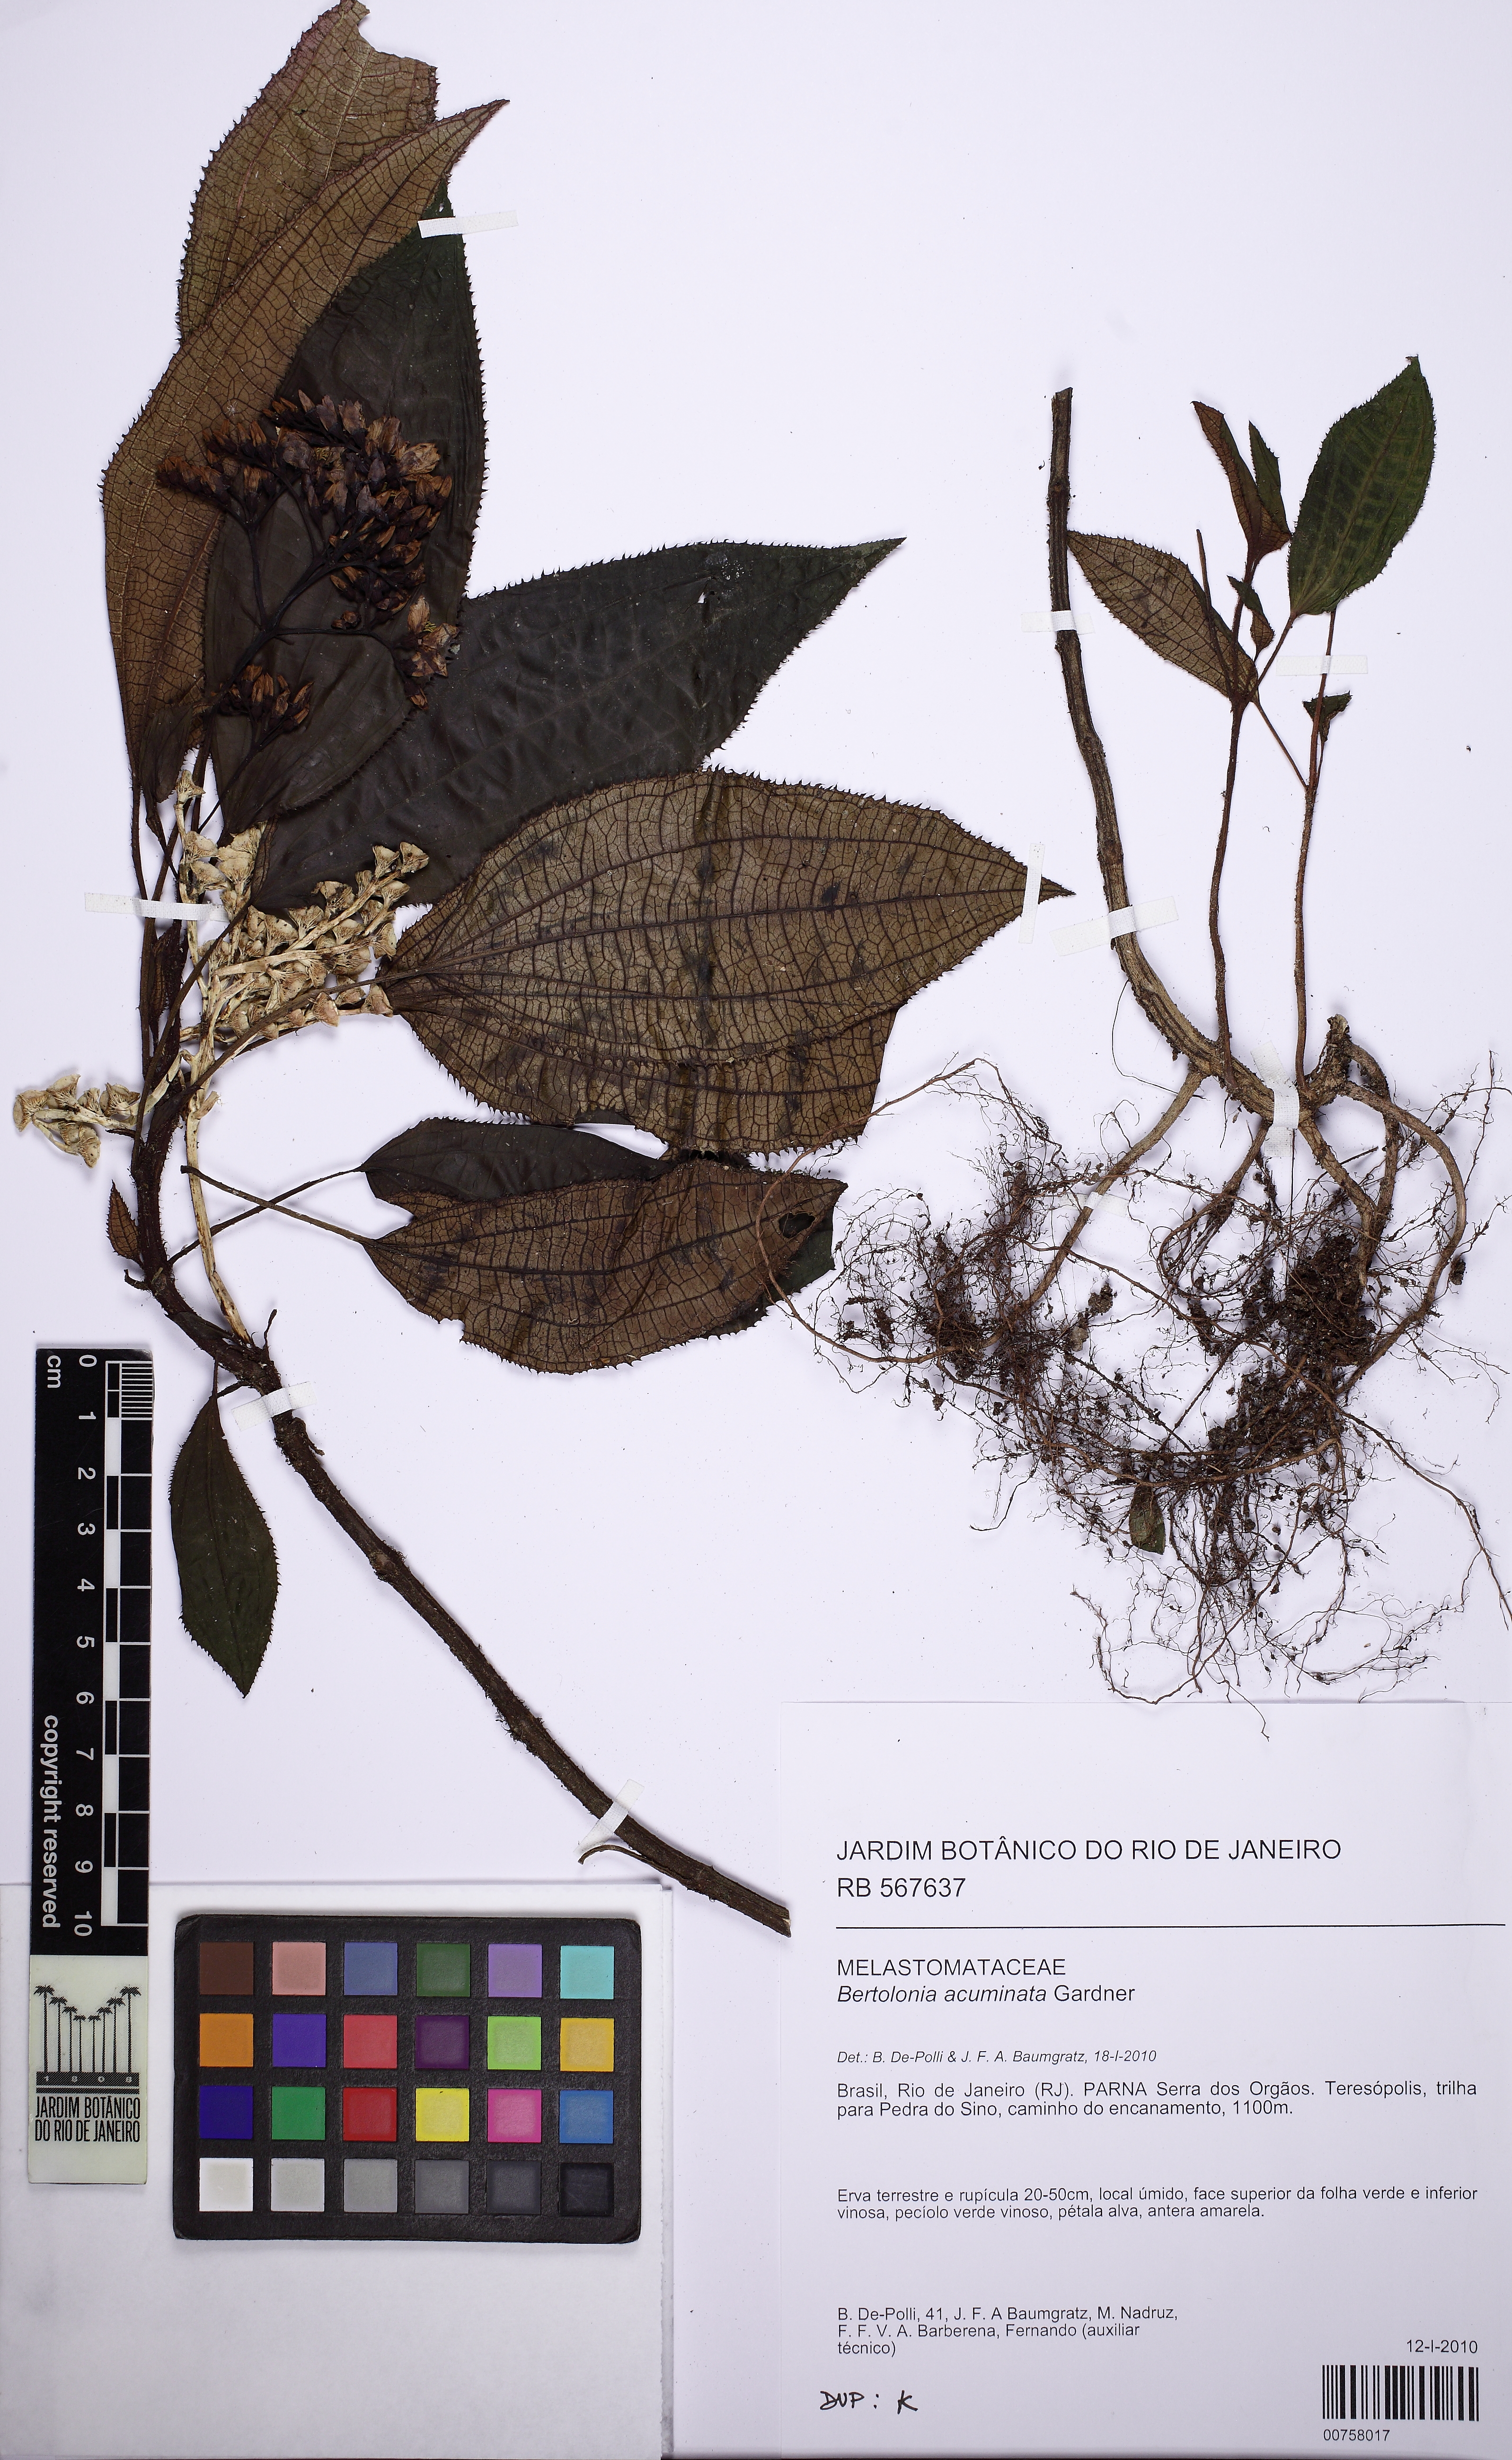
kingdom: Plantae
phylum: Tracheophyta
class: Magnoliopsida
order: Myrtales
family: Melastomataceae
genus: Bertolonia
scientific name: Bertolonia acuminata
